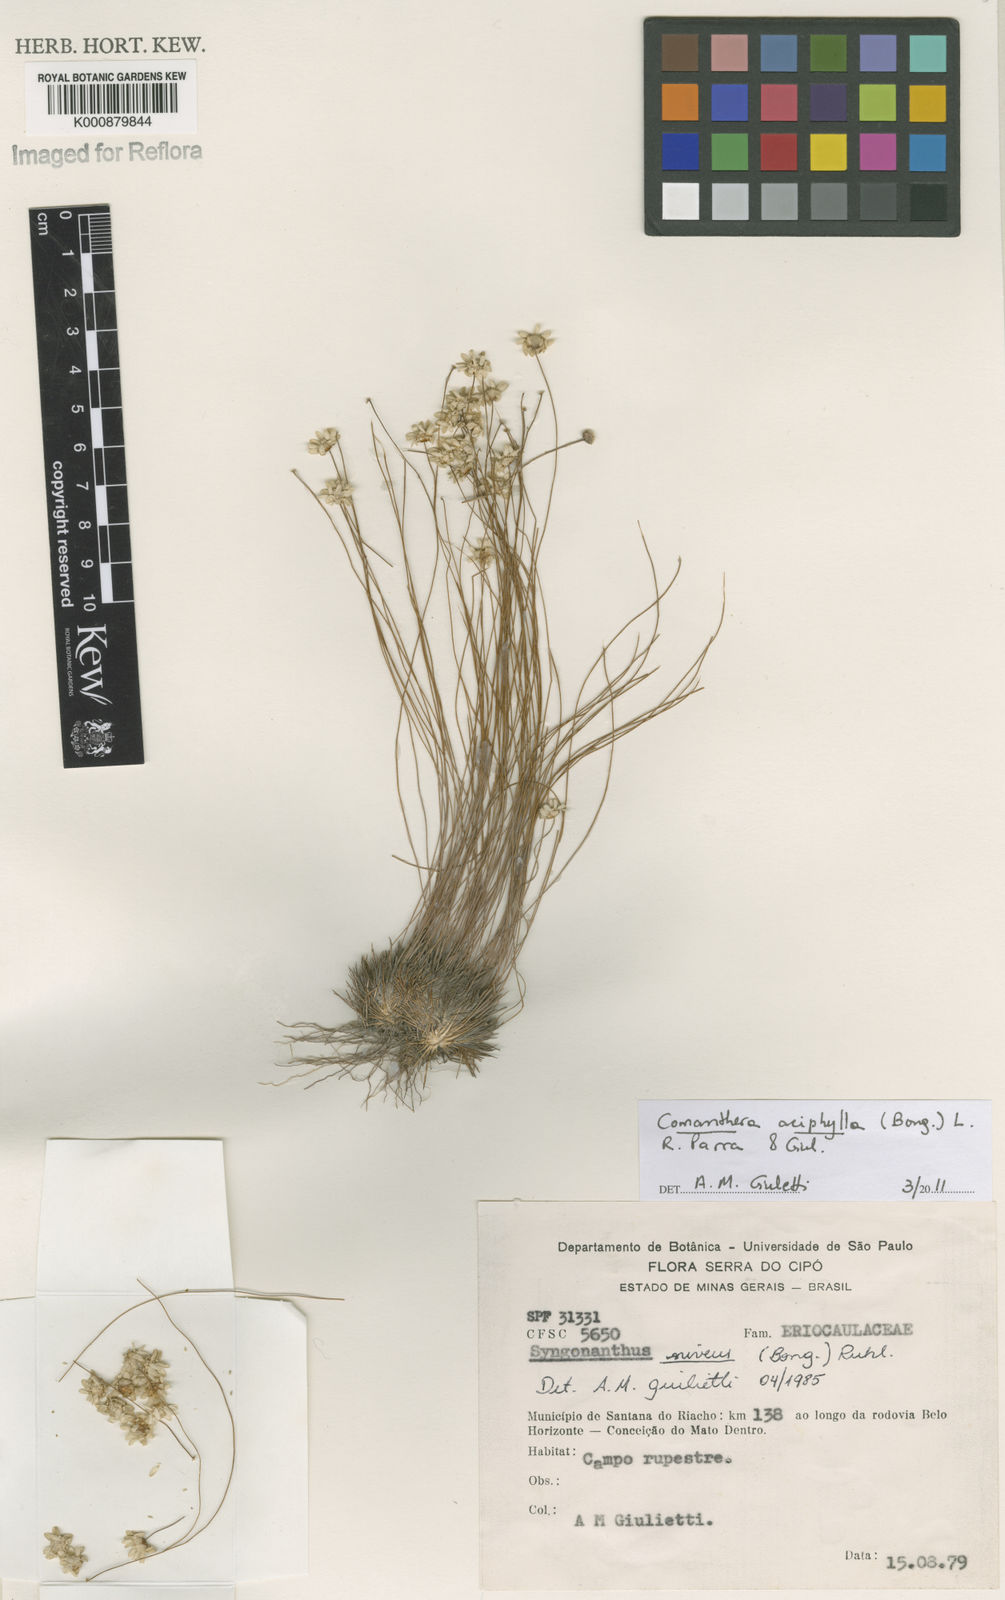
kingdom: Plantae
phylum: Tracheophyta
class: Liliopsida
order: Poales
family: Eriocaulaceae
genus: Comanthera
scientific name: Comanthera aciphylla
